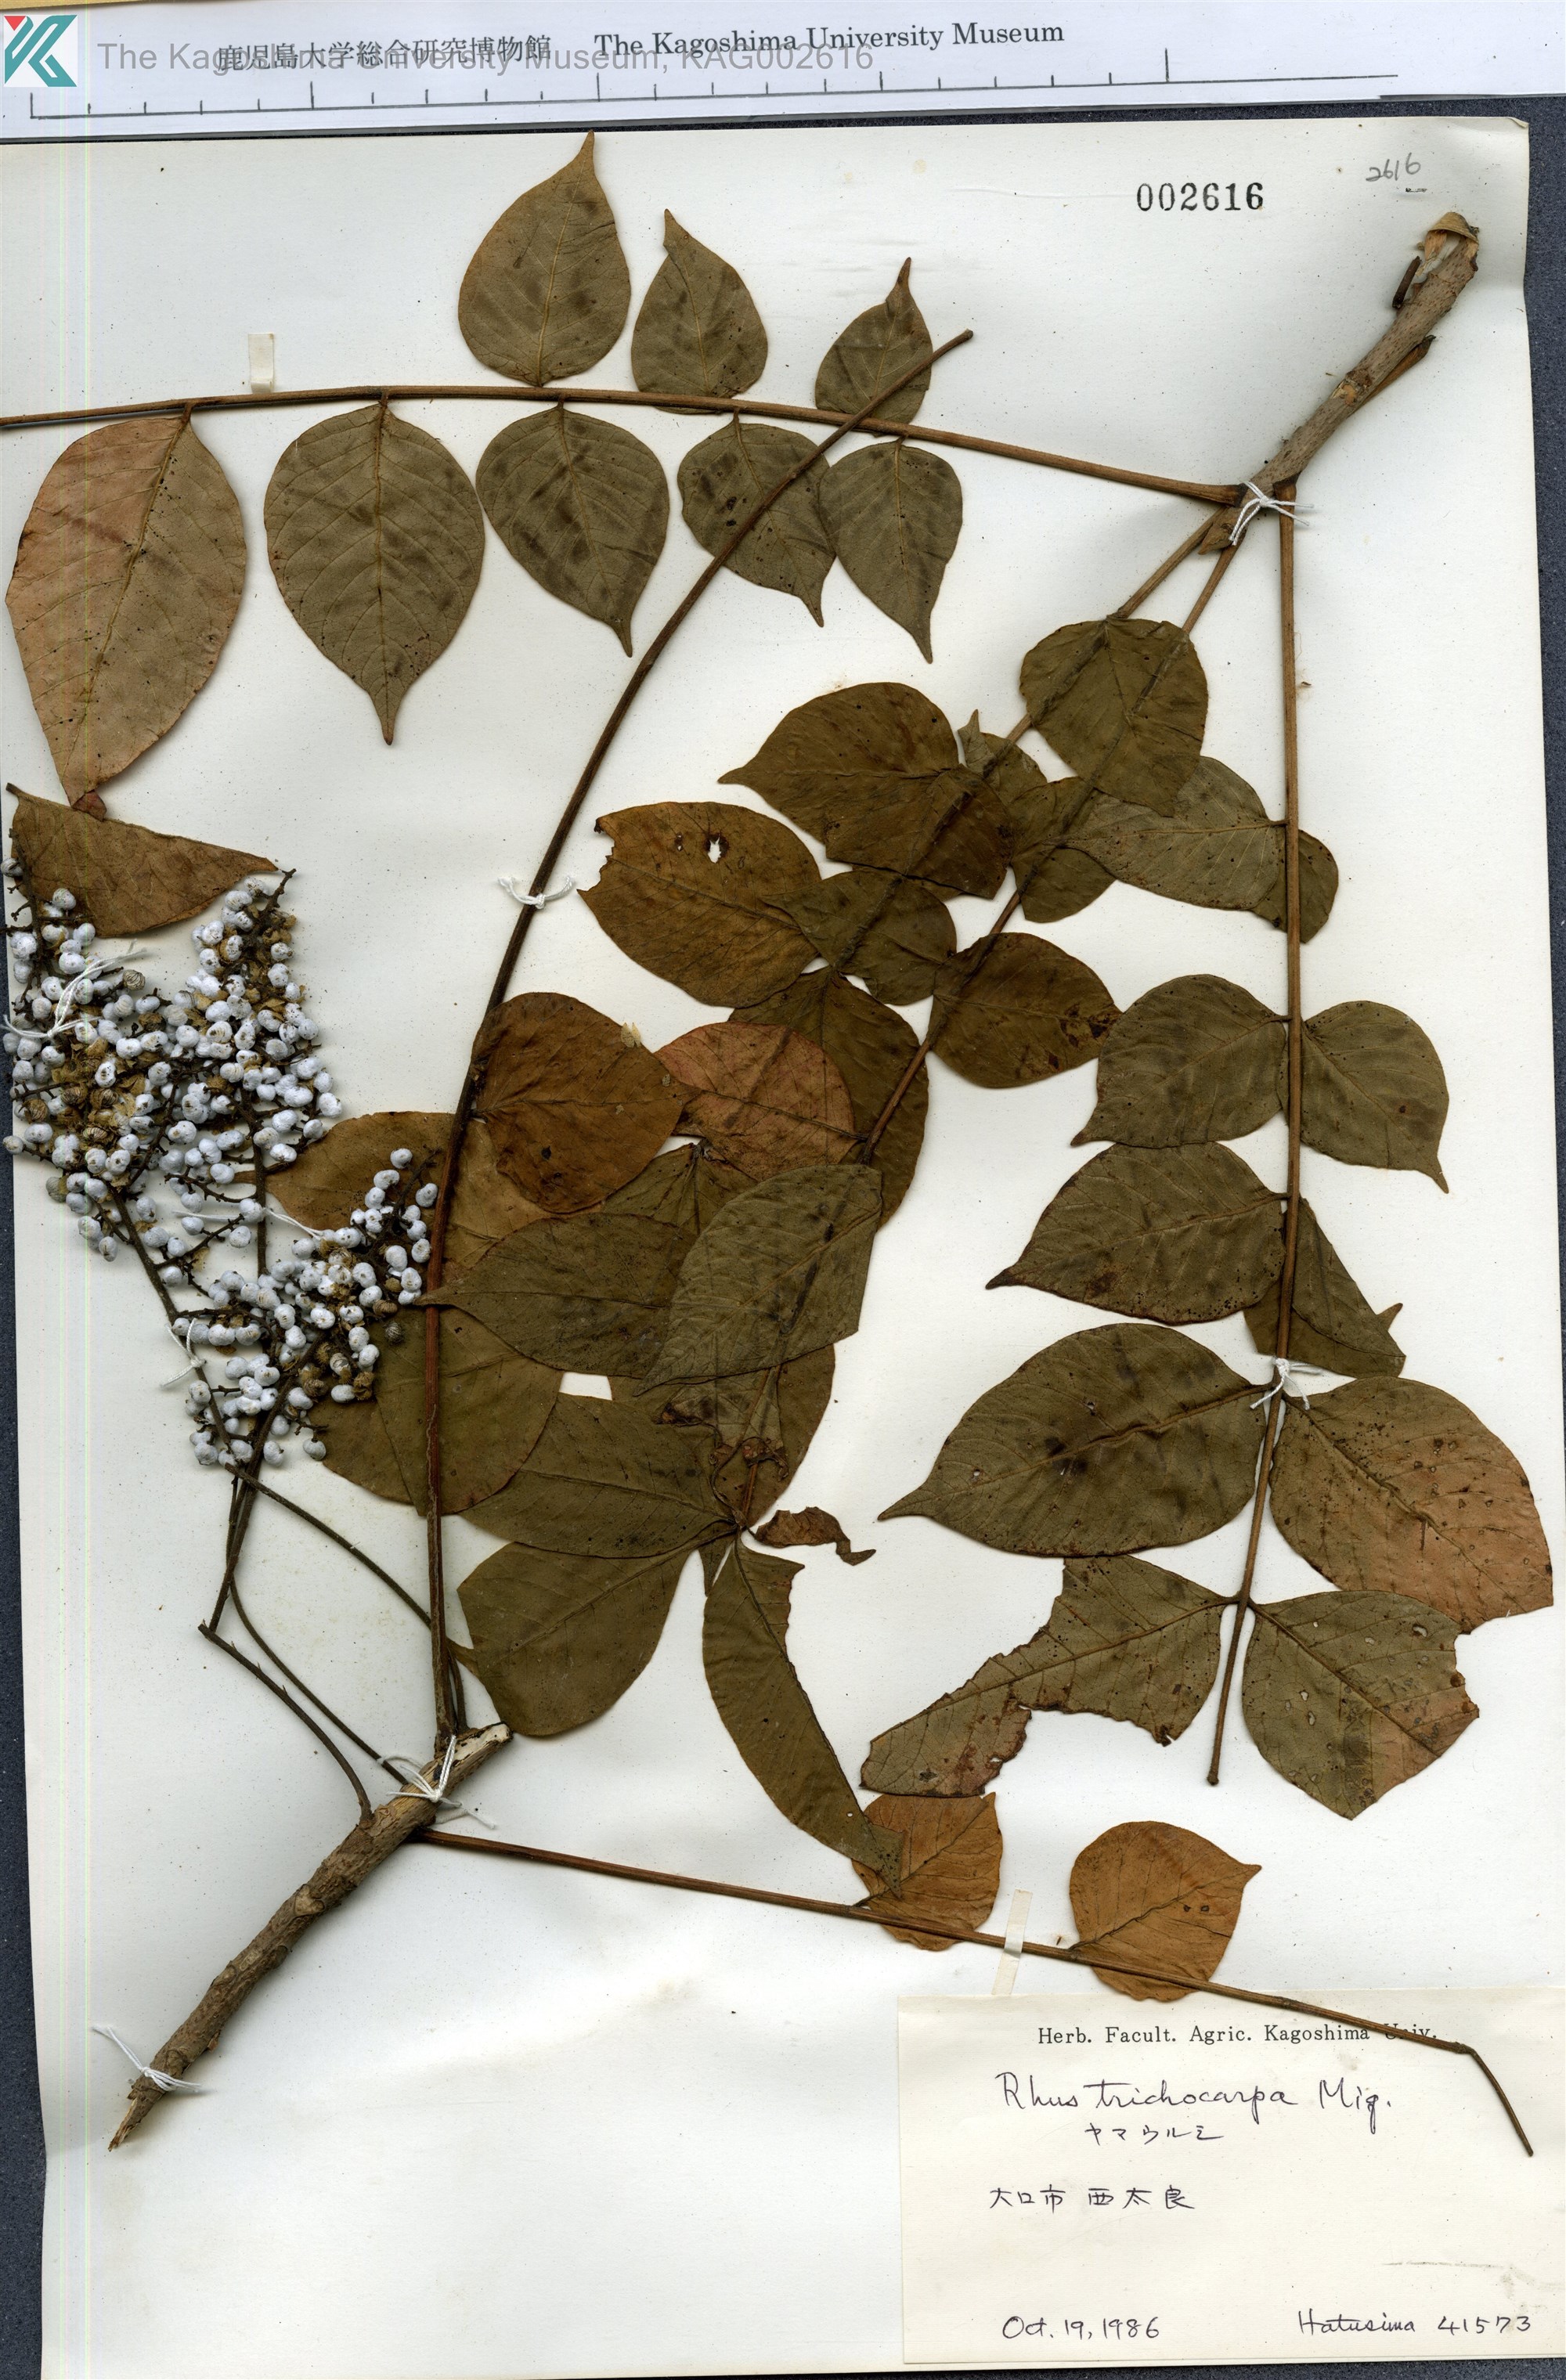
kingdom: Plantae
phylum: Tracheophyta
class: Magnoliopsida
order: Sapindales
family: Anacardiaceae
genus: Toxicodendron
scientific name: Toxicodendron trichocarpum
